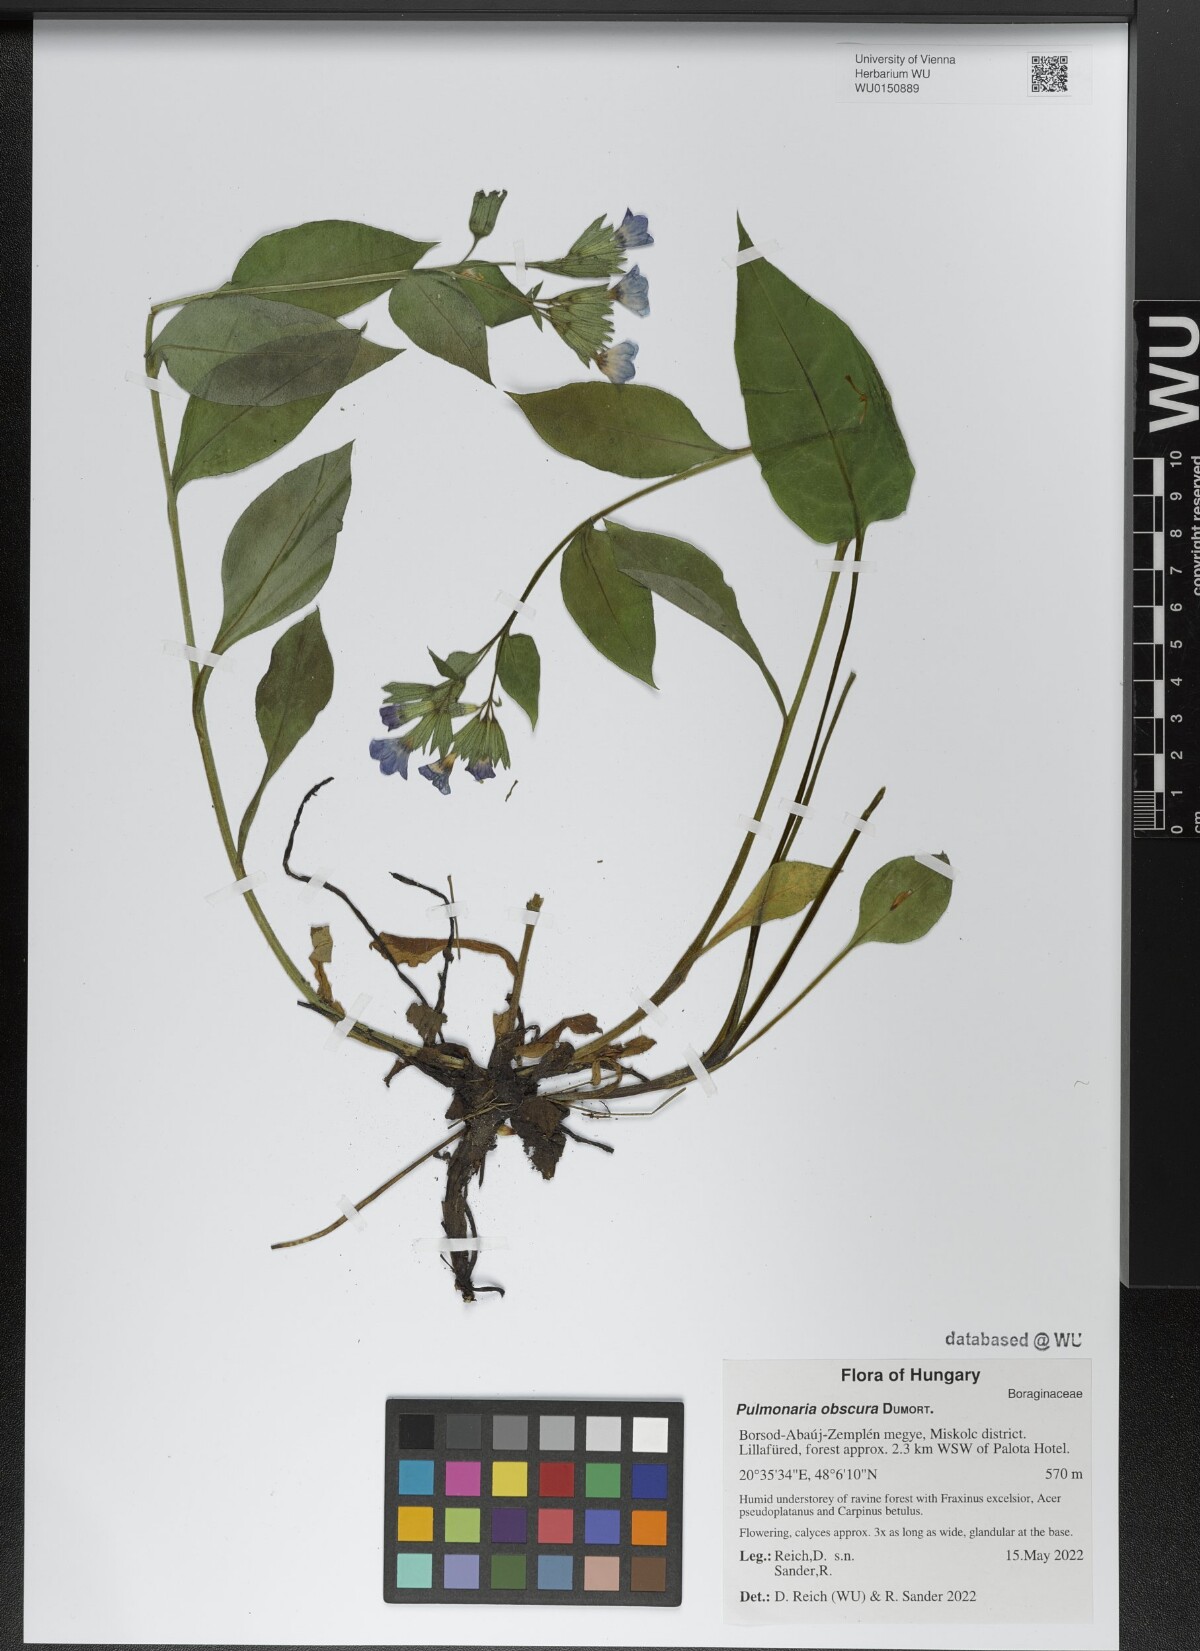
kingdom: Plantae
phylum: Tracheophyta
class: Magnoliopsida
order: Boraginales
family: Boraginaceae
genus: Pulmonaria
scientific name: Pulmonaria obscura
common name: Suffolk lungwort
